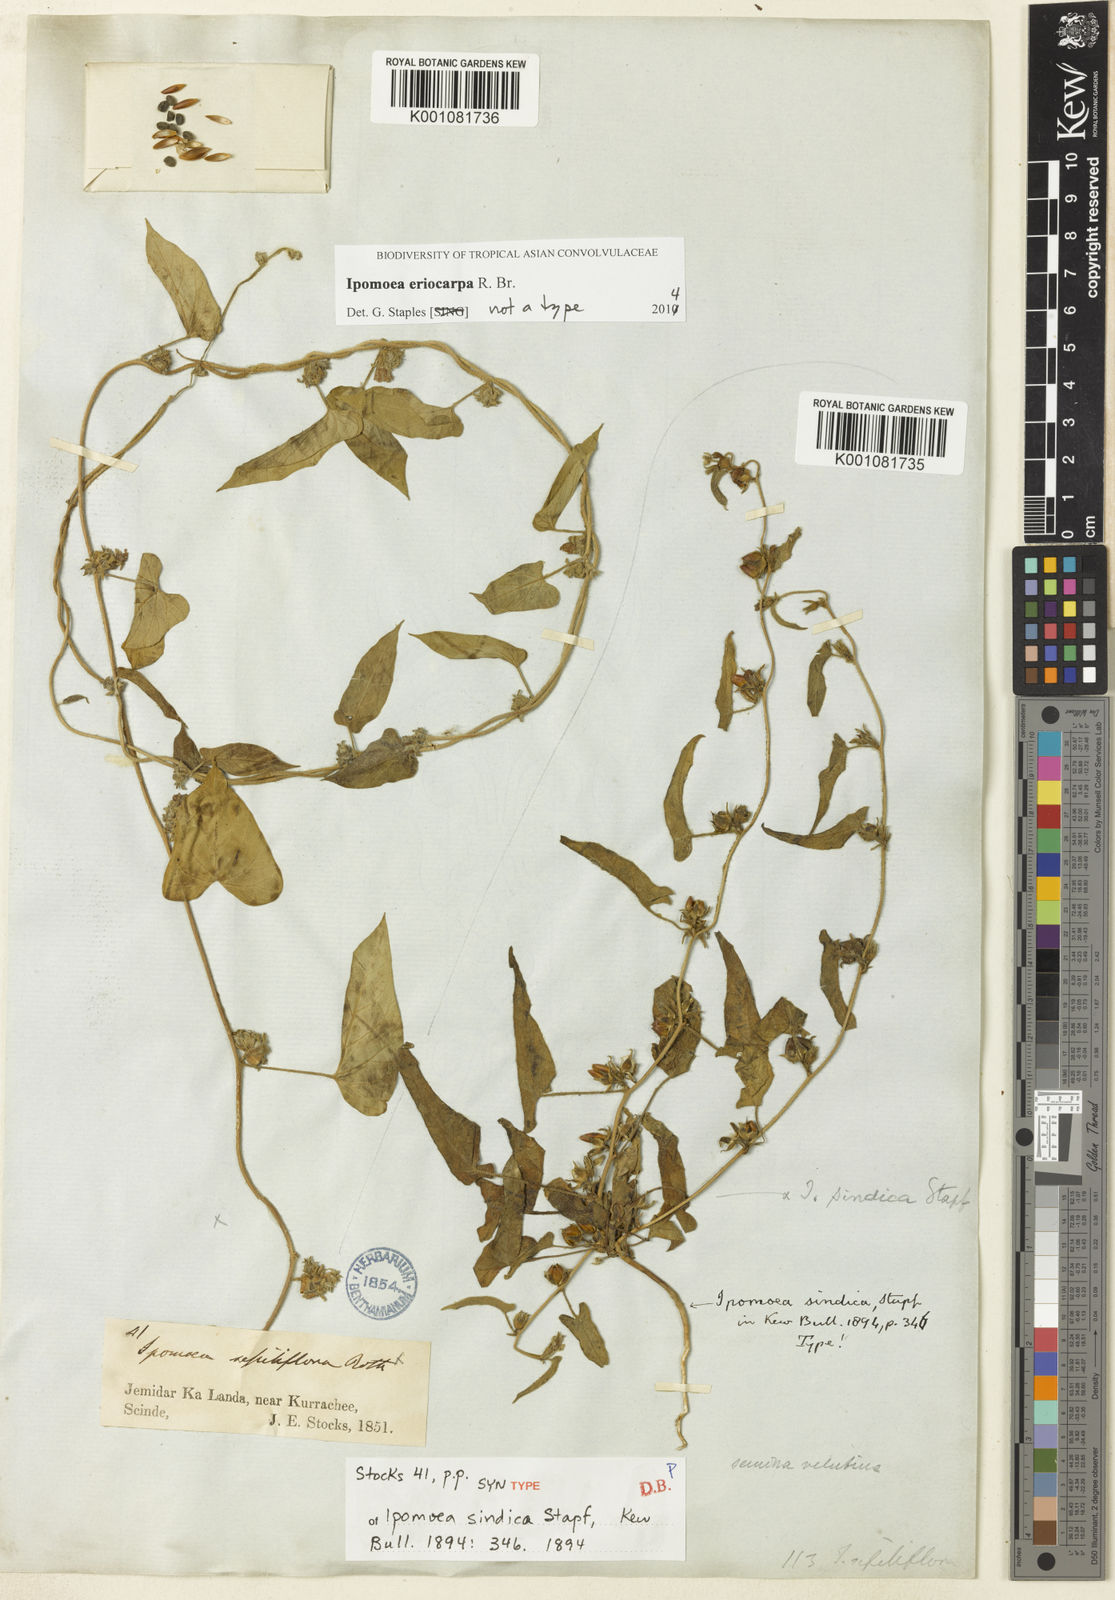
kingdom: Plantae
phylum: Tracheophyta
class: Magnoliopsida
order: Solanales
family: Convolvulaceae
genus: Ipomoea
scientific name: Ipomoea eriocarpa
